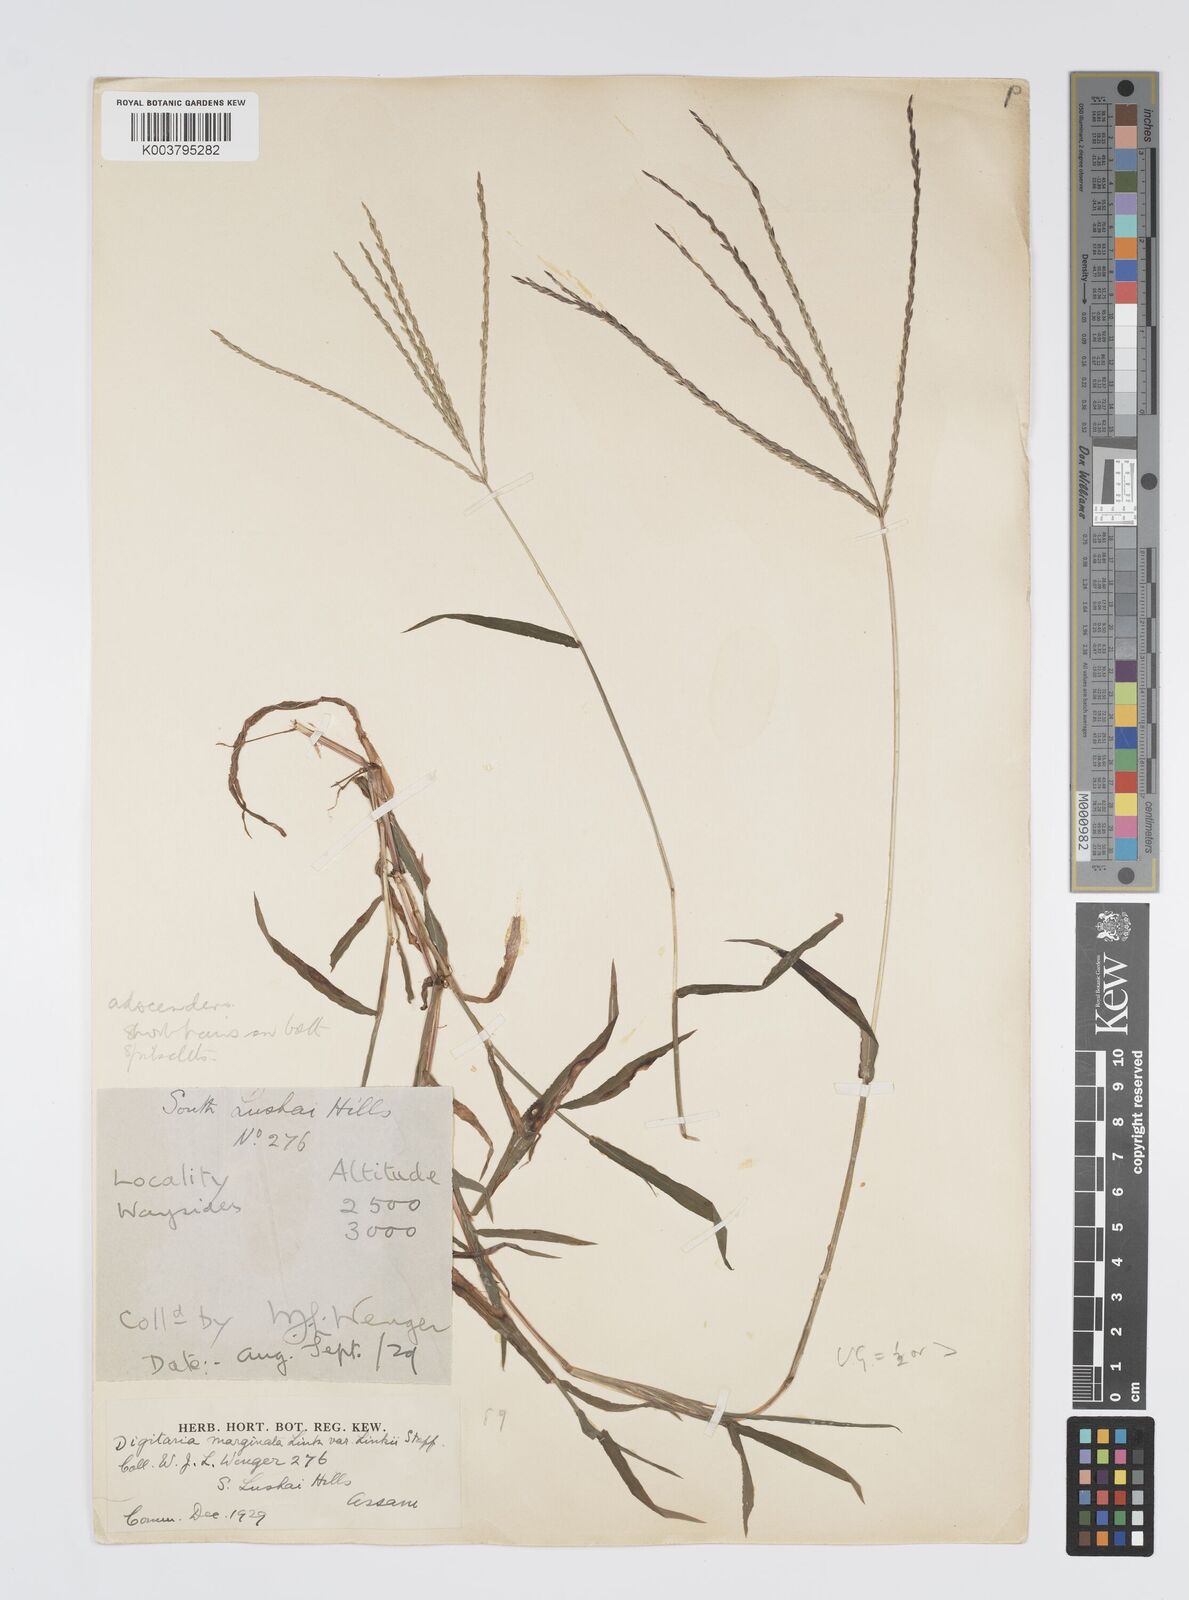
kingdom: Plantae
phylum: Tracheophyta
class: Liliopsida
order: Poales
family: Poaceae
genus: Digitaria
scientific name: Digitaria ciliaris
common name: Tropical finger-grass
